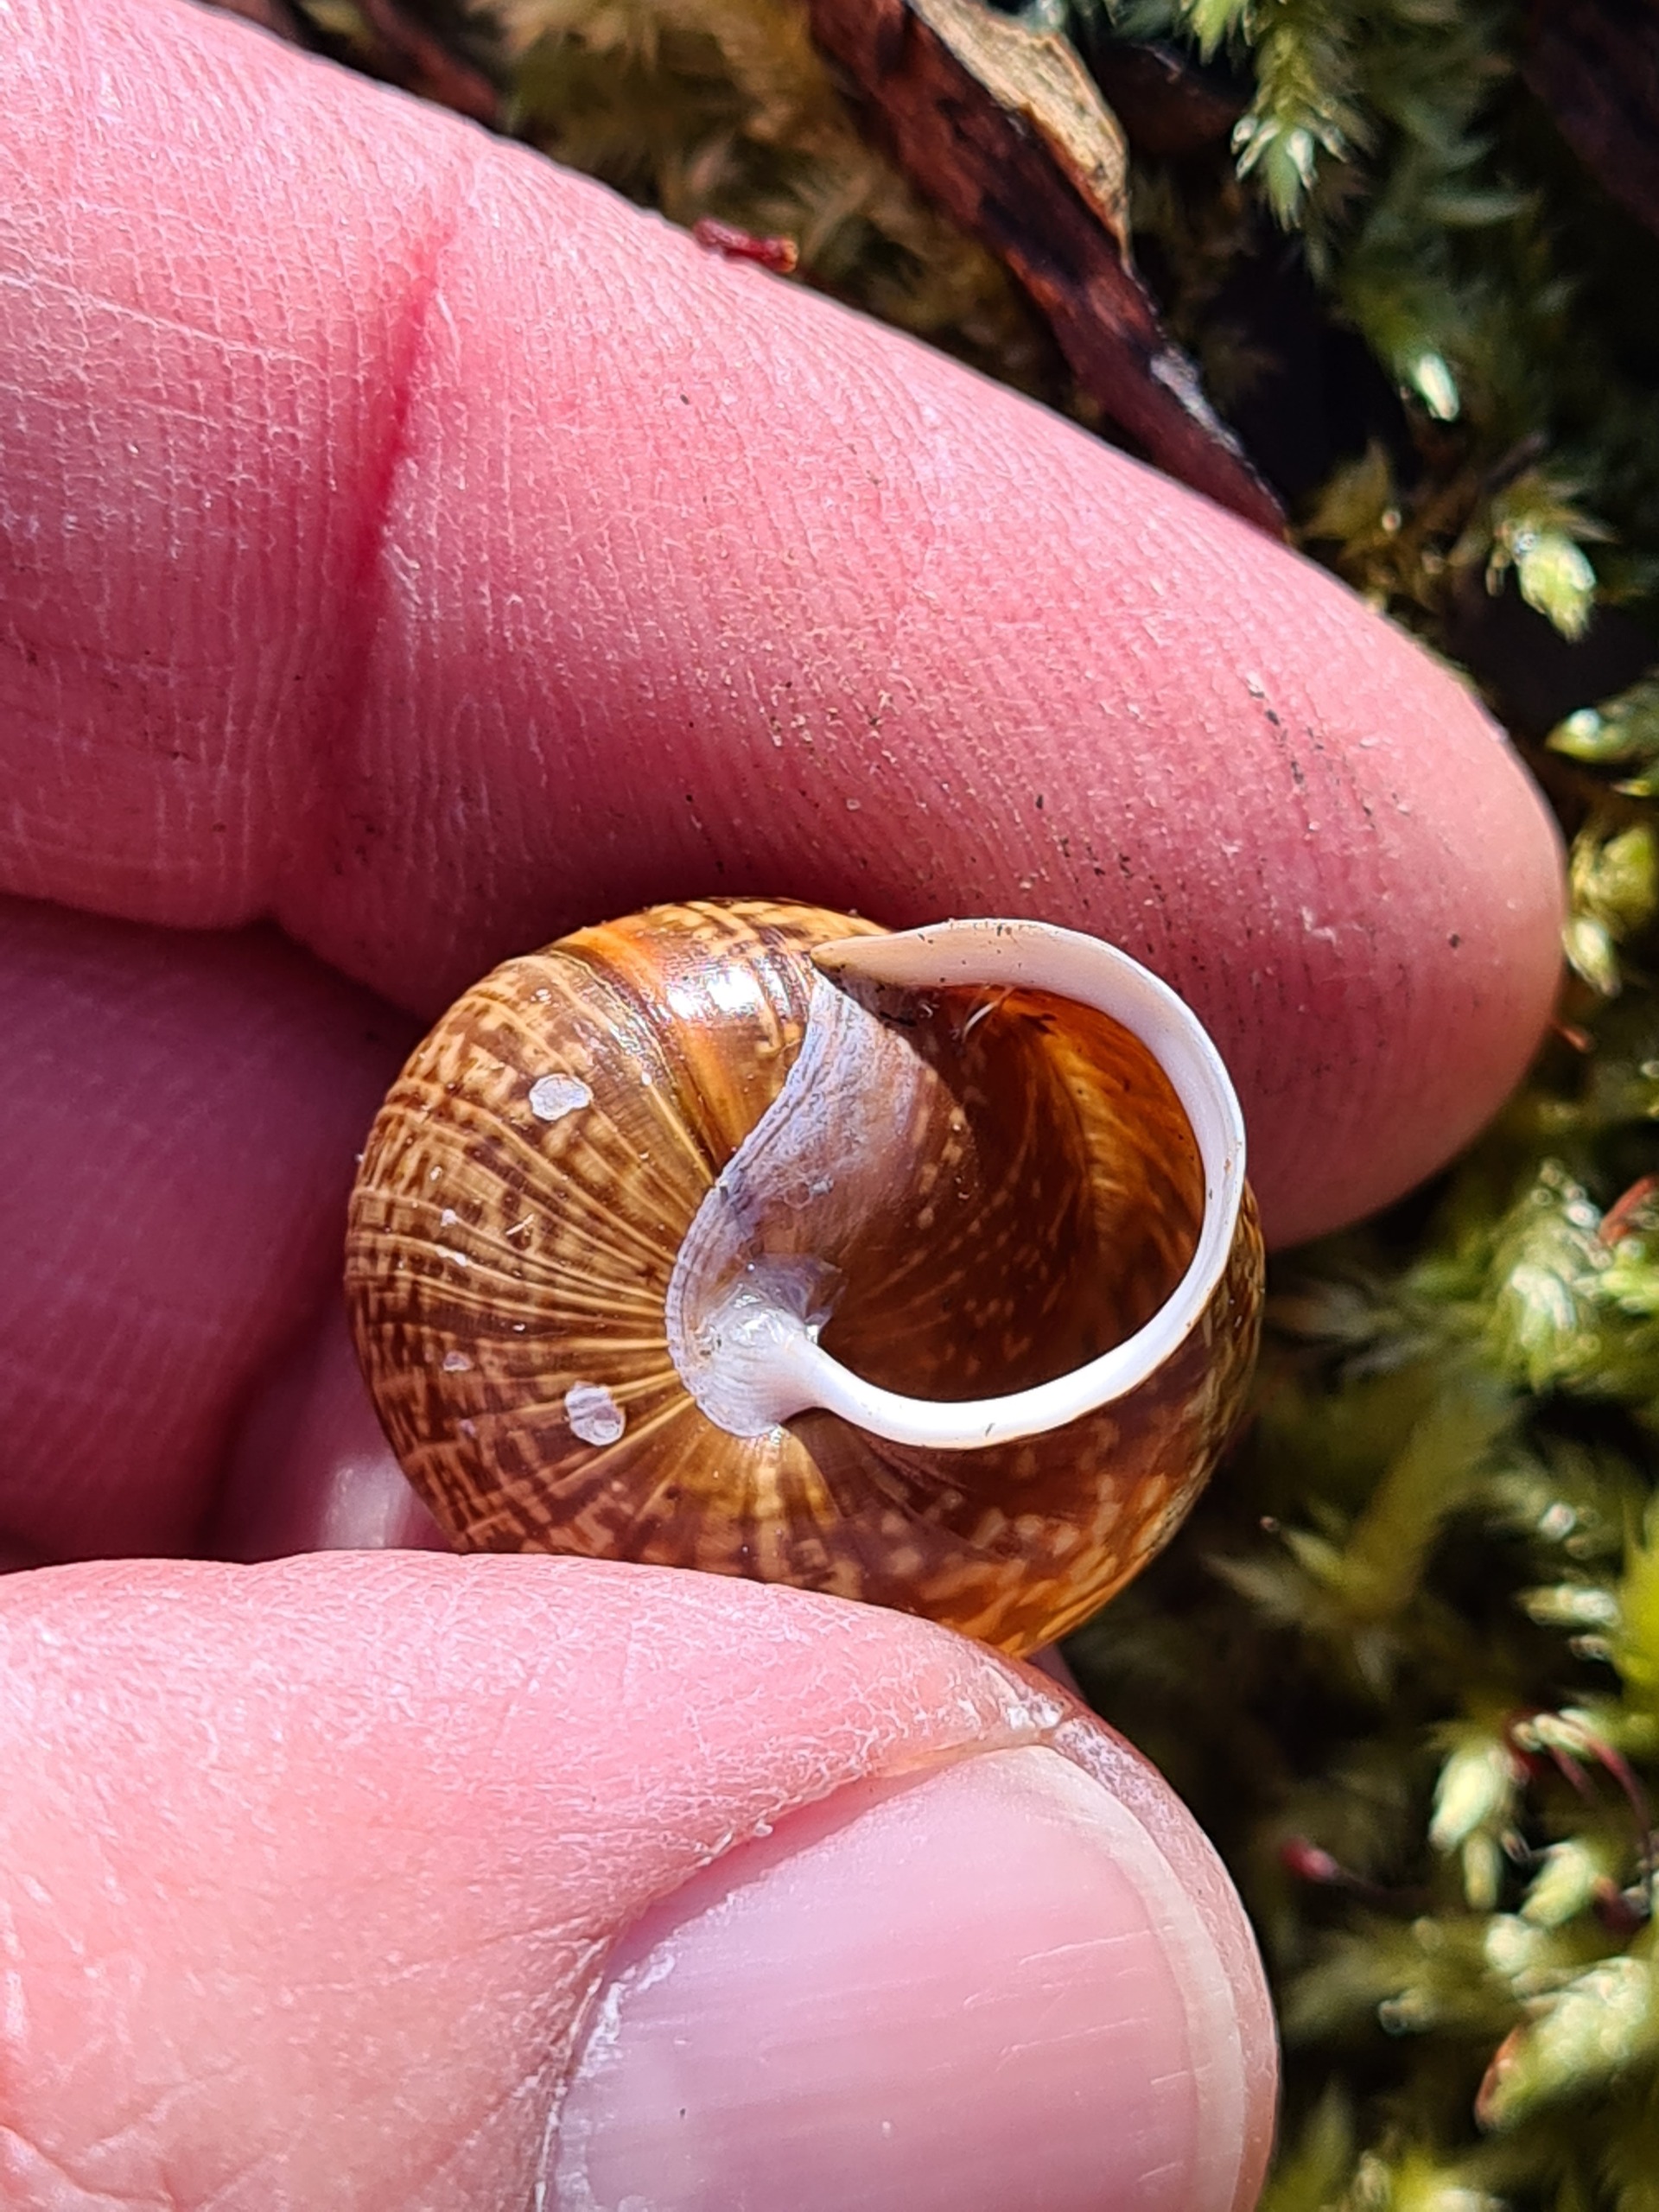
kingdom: Animalia
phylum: Mollusca
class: Gastropoda
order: Stylommatophora
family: Helicidae
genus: Arianta
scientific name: Arianta arbustorum
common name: Kratsnegl
